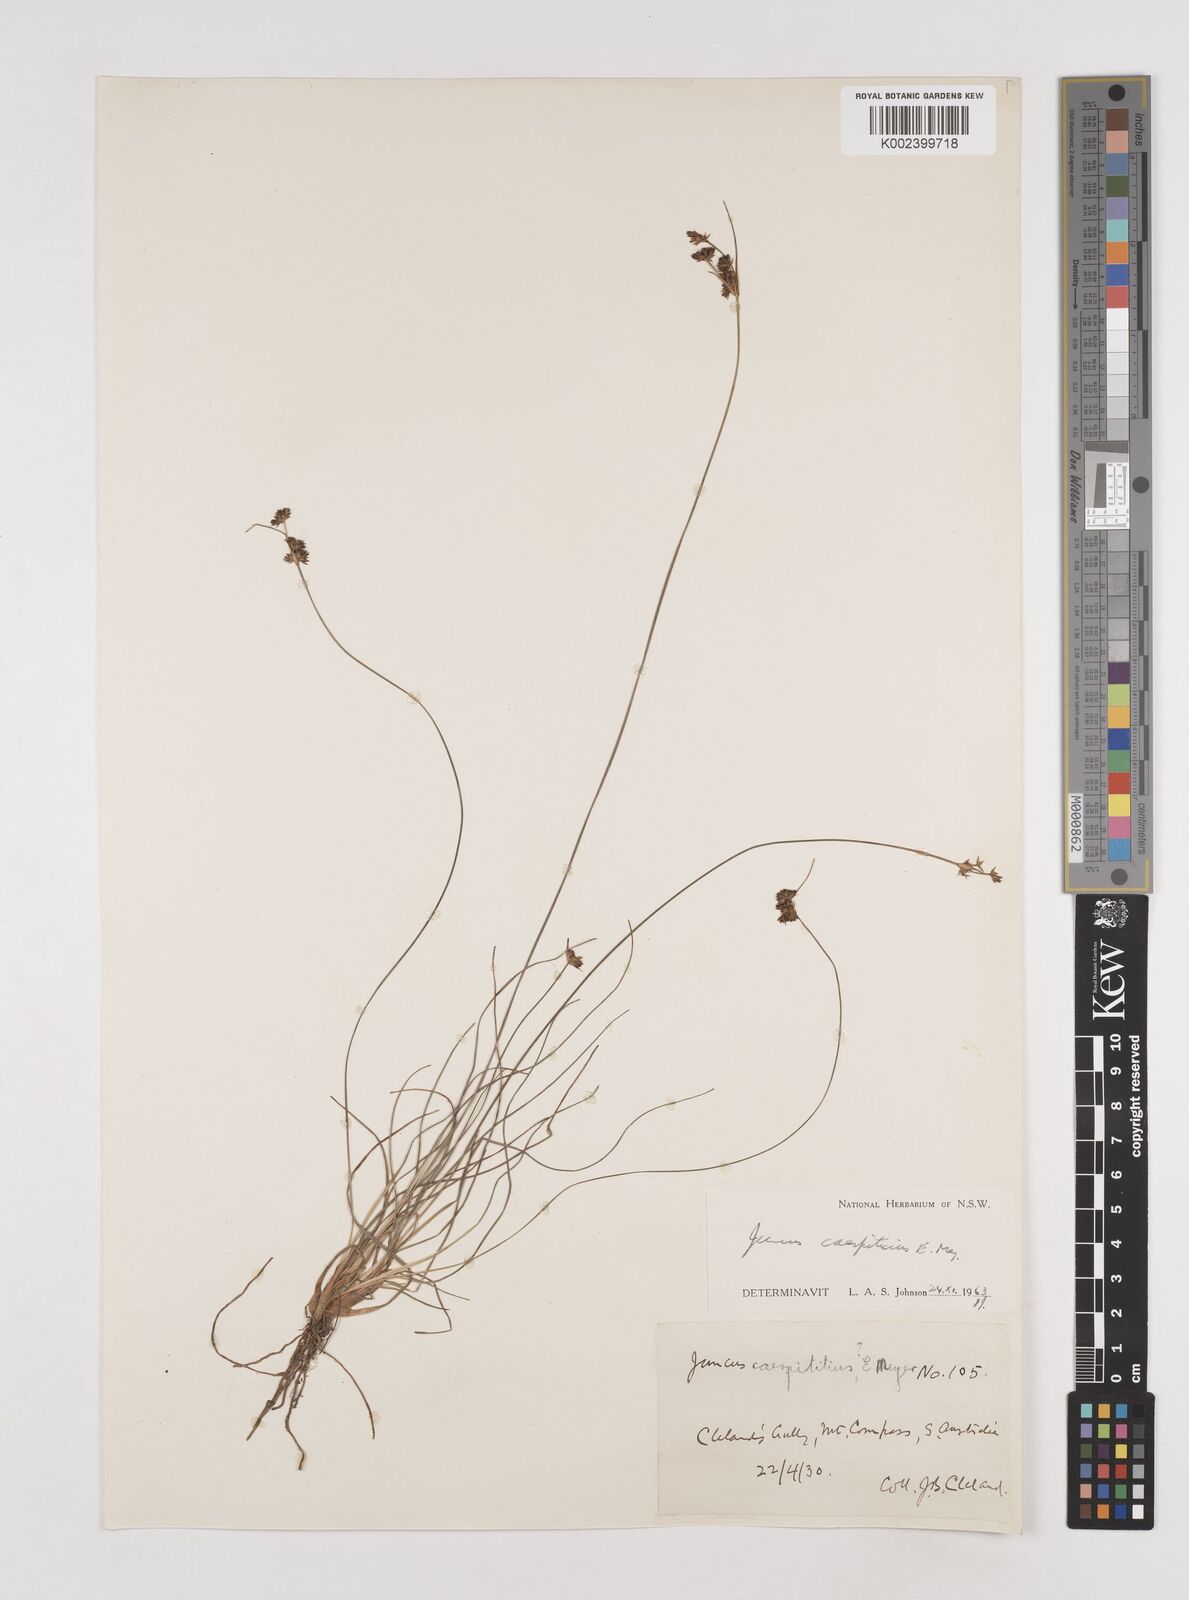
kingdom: Plantae
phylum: Tracheophyta
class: Liliopsida
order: Poales
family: Juncaceae
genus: Juncus
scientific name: Juncus caespiticius
